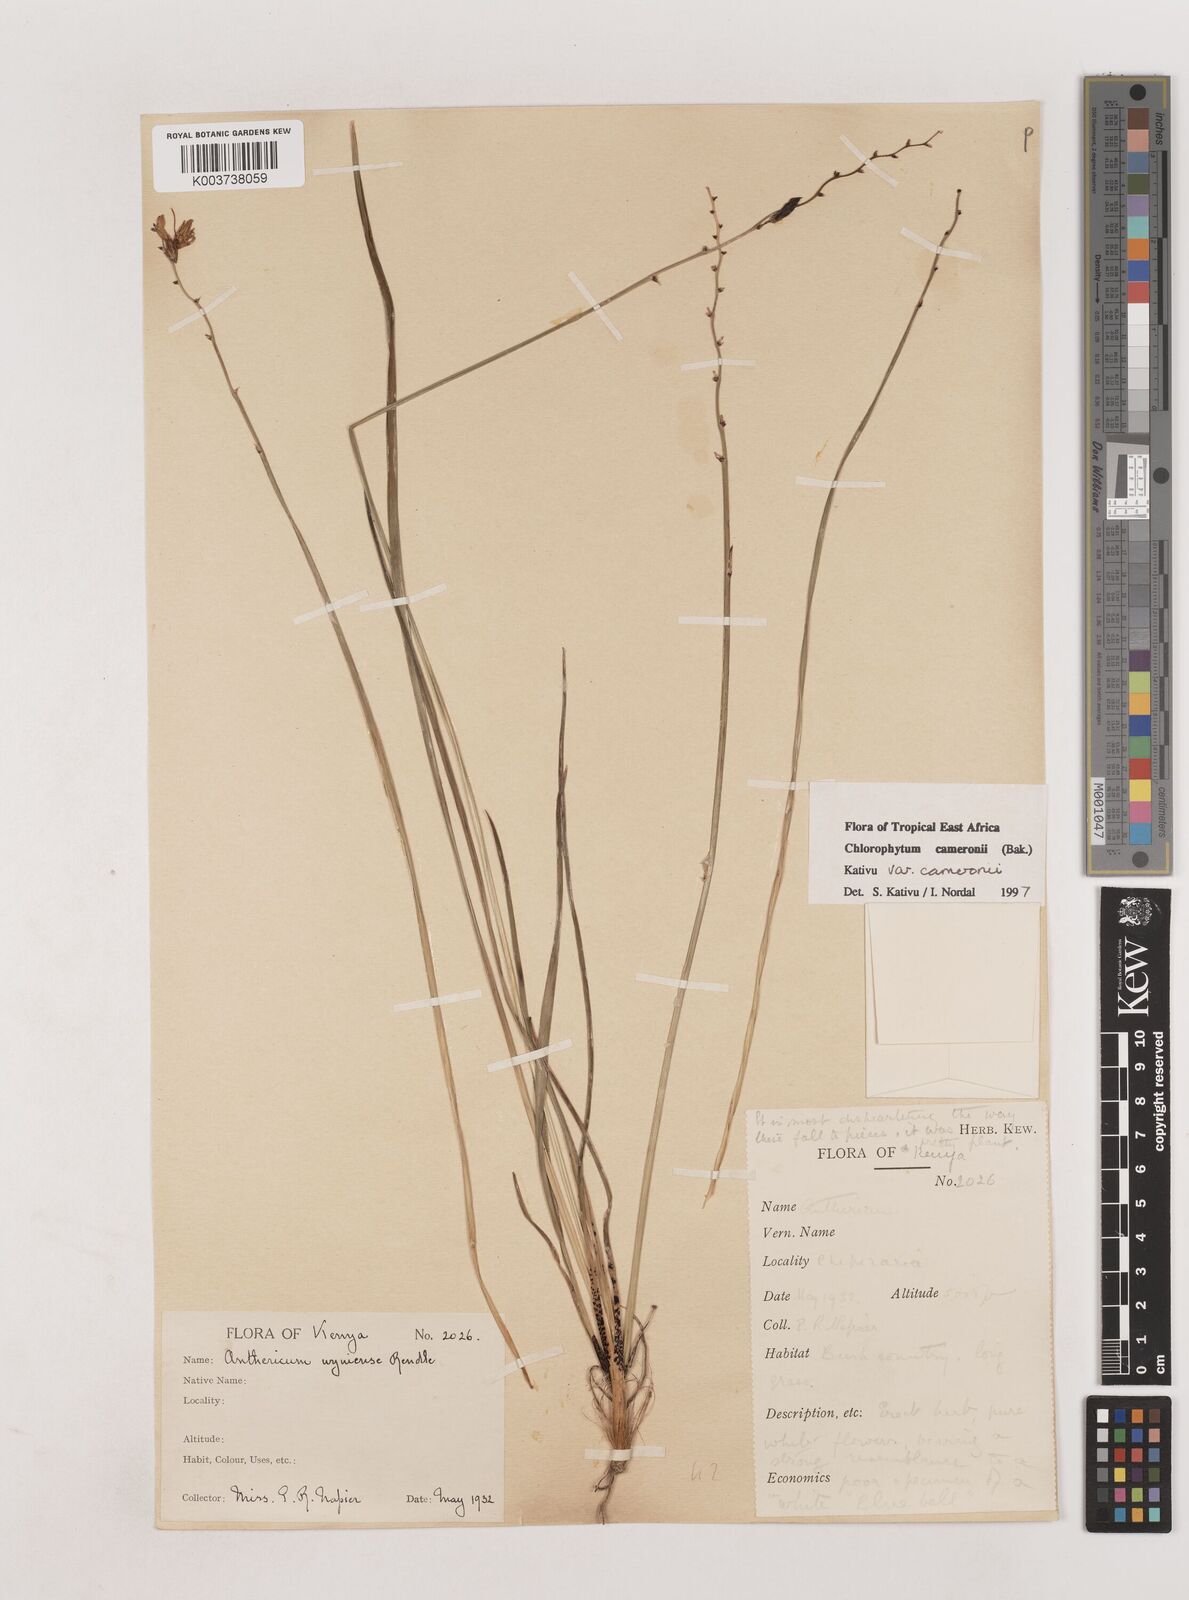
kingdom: Plantae
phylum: Tracheophyta
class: Liliopsida
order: Asparagales
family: Asparagaceae
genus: Chlorophytum
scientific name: Chlorophytum cameronii
